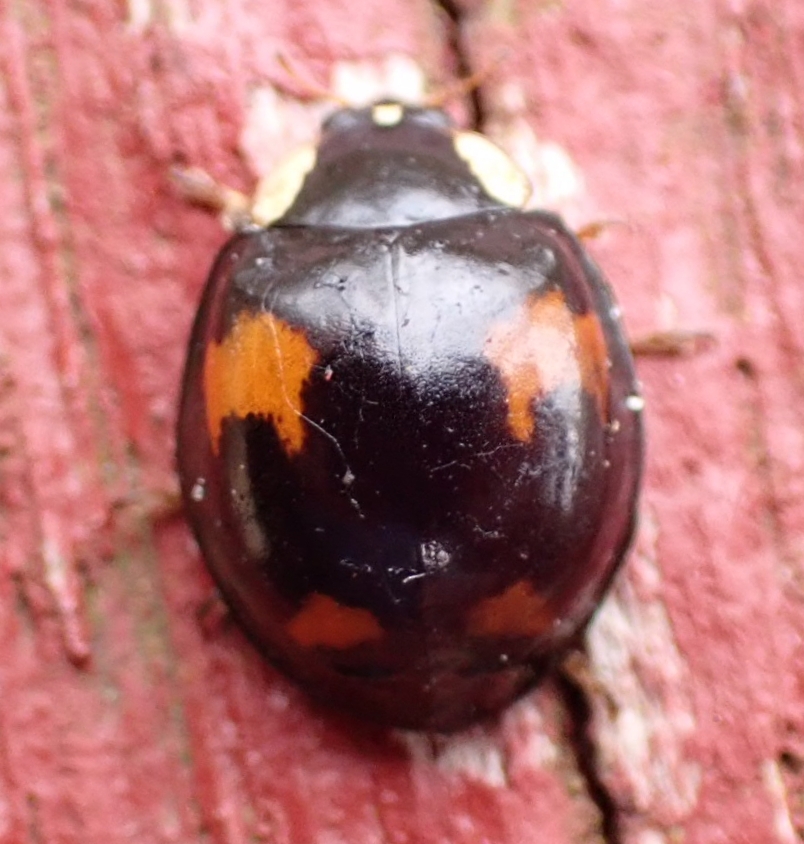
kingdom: Animalia
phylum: Arthropoda
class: Insecta
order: Coleoptera
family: Coccinellidae
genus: Harmonia
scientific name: Harmonia axyridis
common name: Harlekinmariehøne
